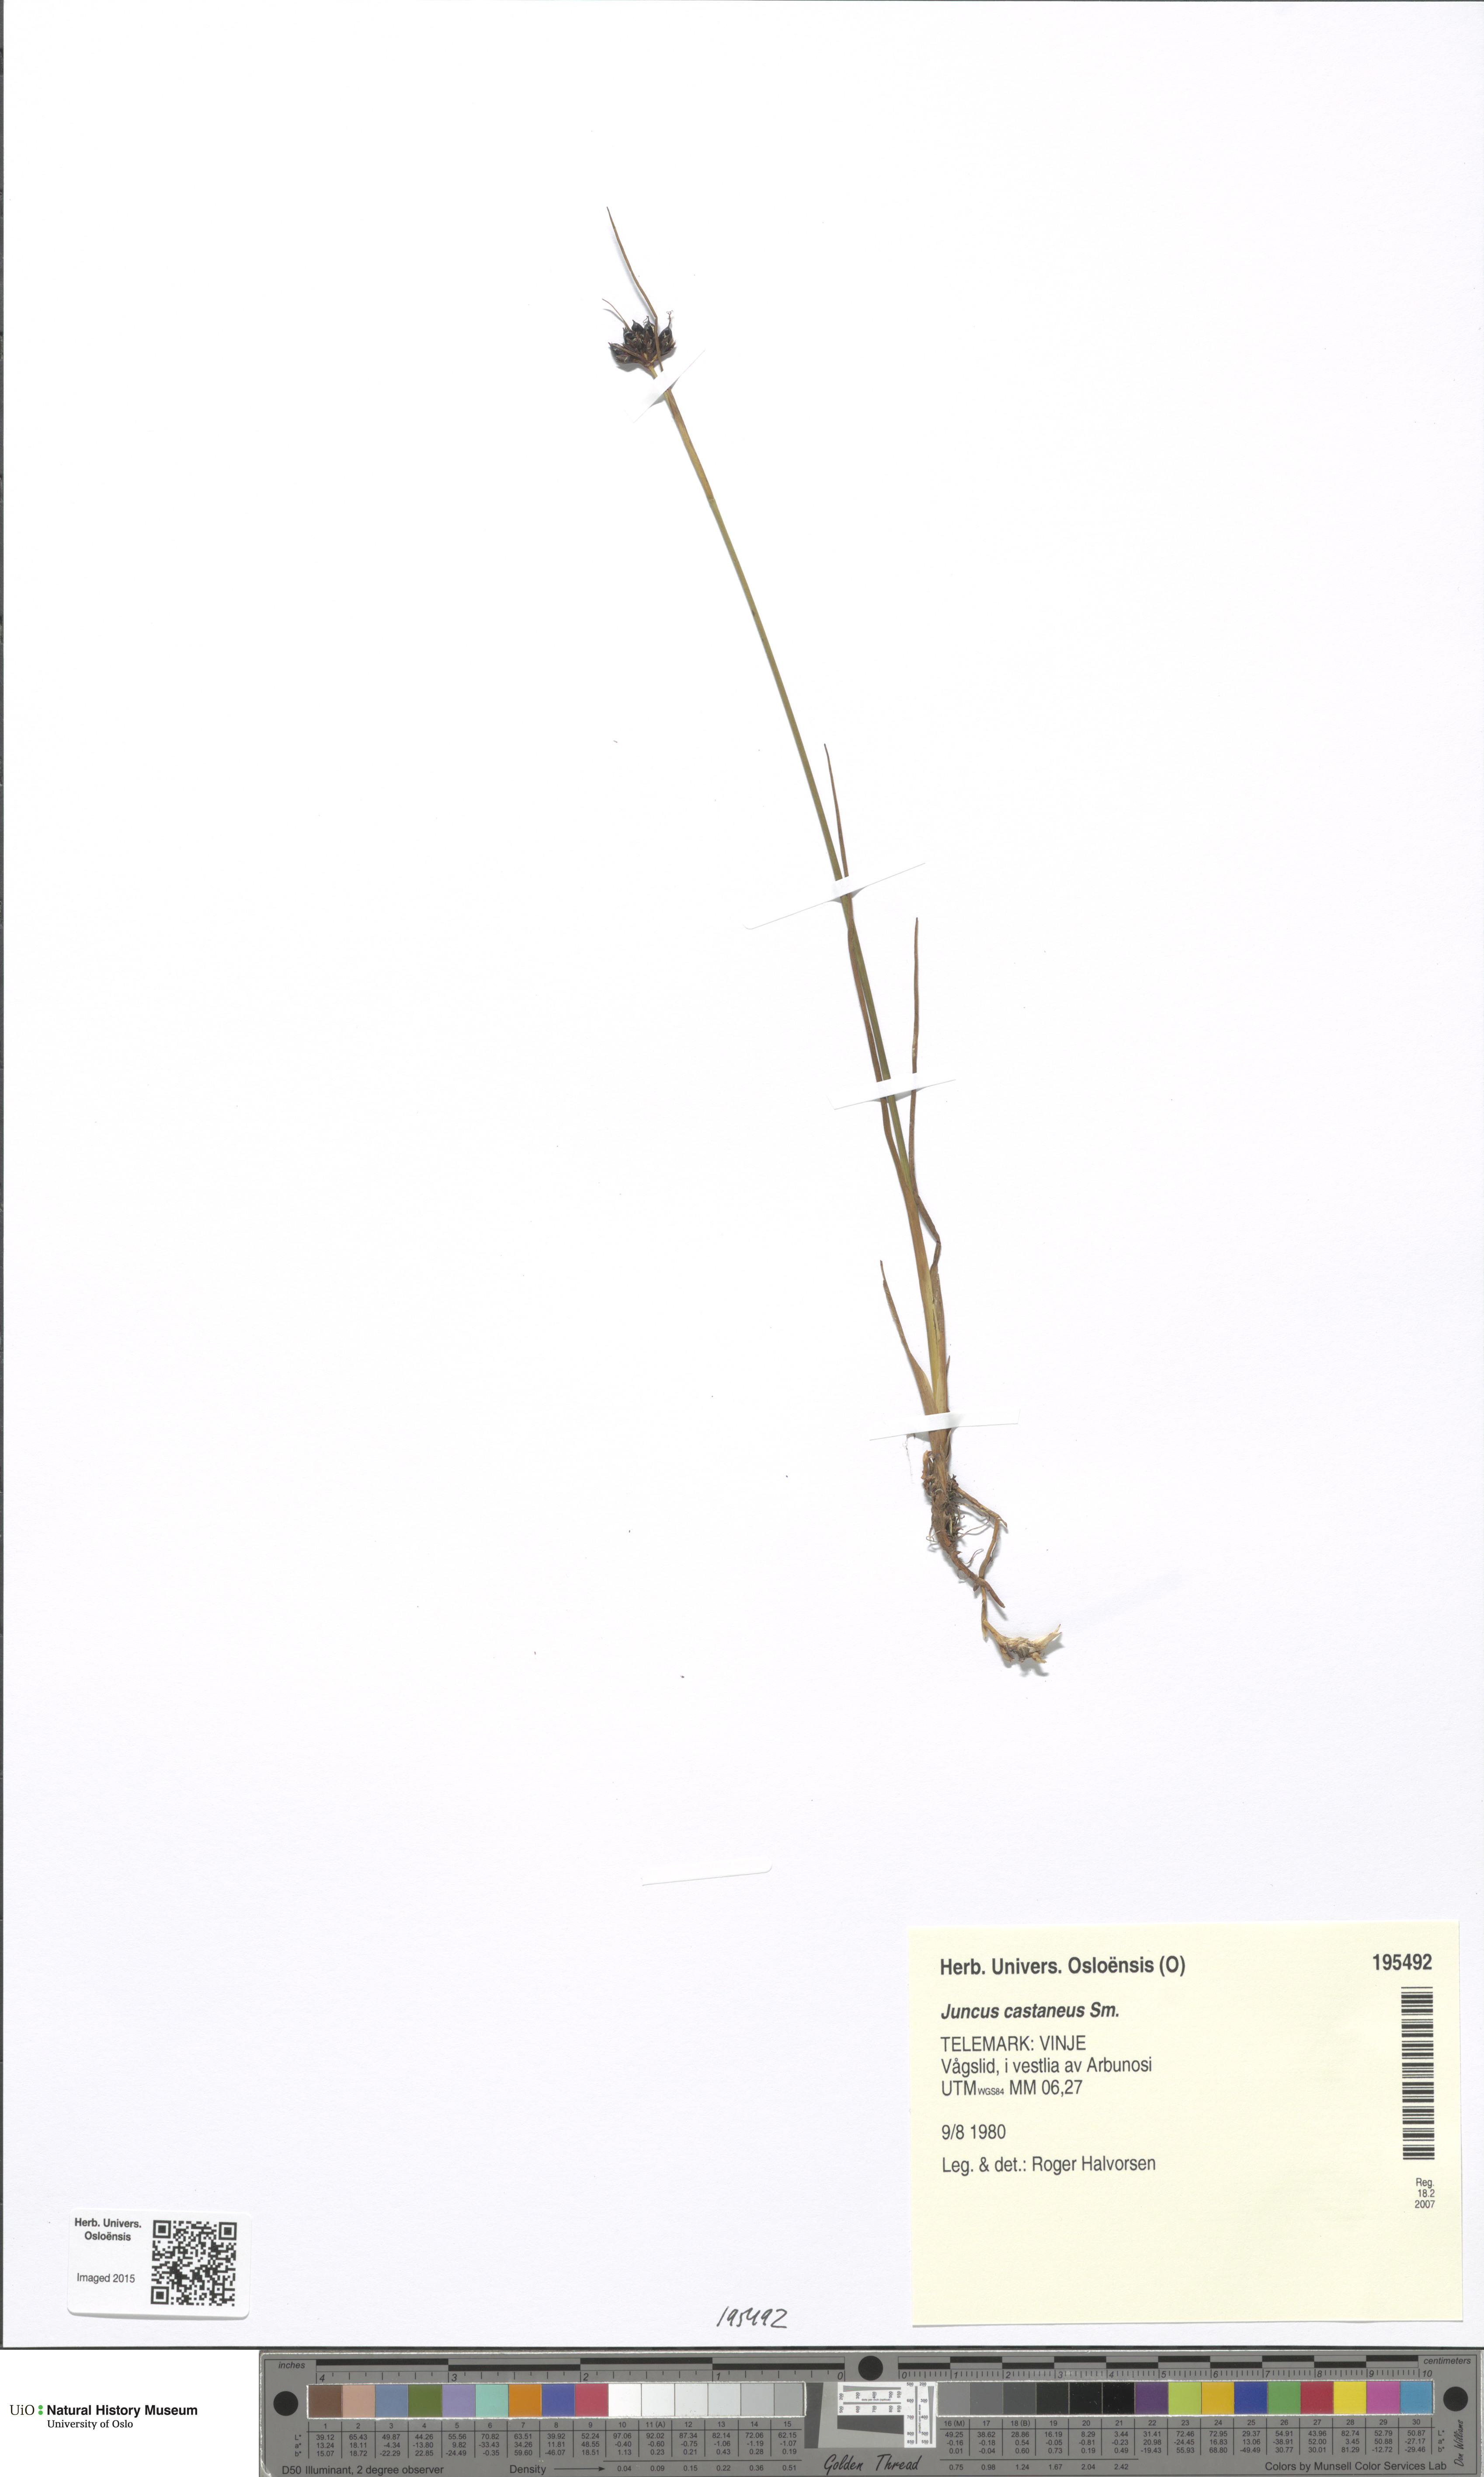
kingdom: Plantae
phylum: Tracheophyta
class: Liliopsida
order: Poales
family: Juncaceae
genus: Juncus
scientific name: Juncus castaneus
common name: Chestnut rush
